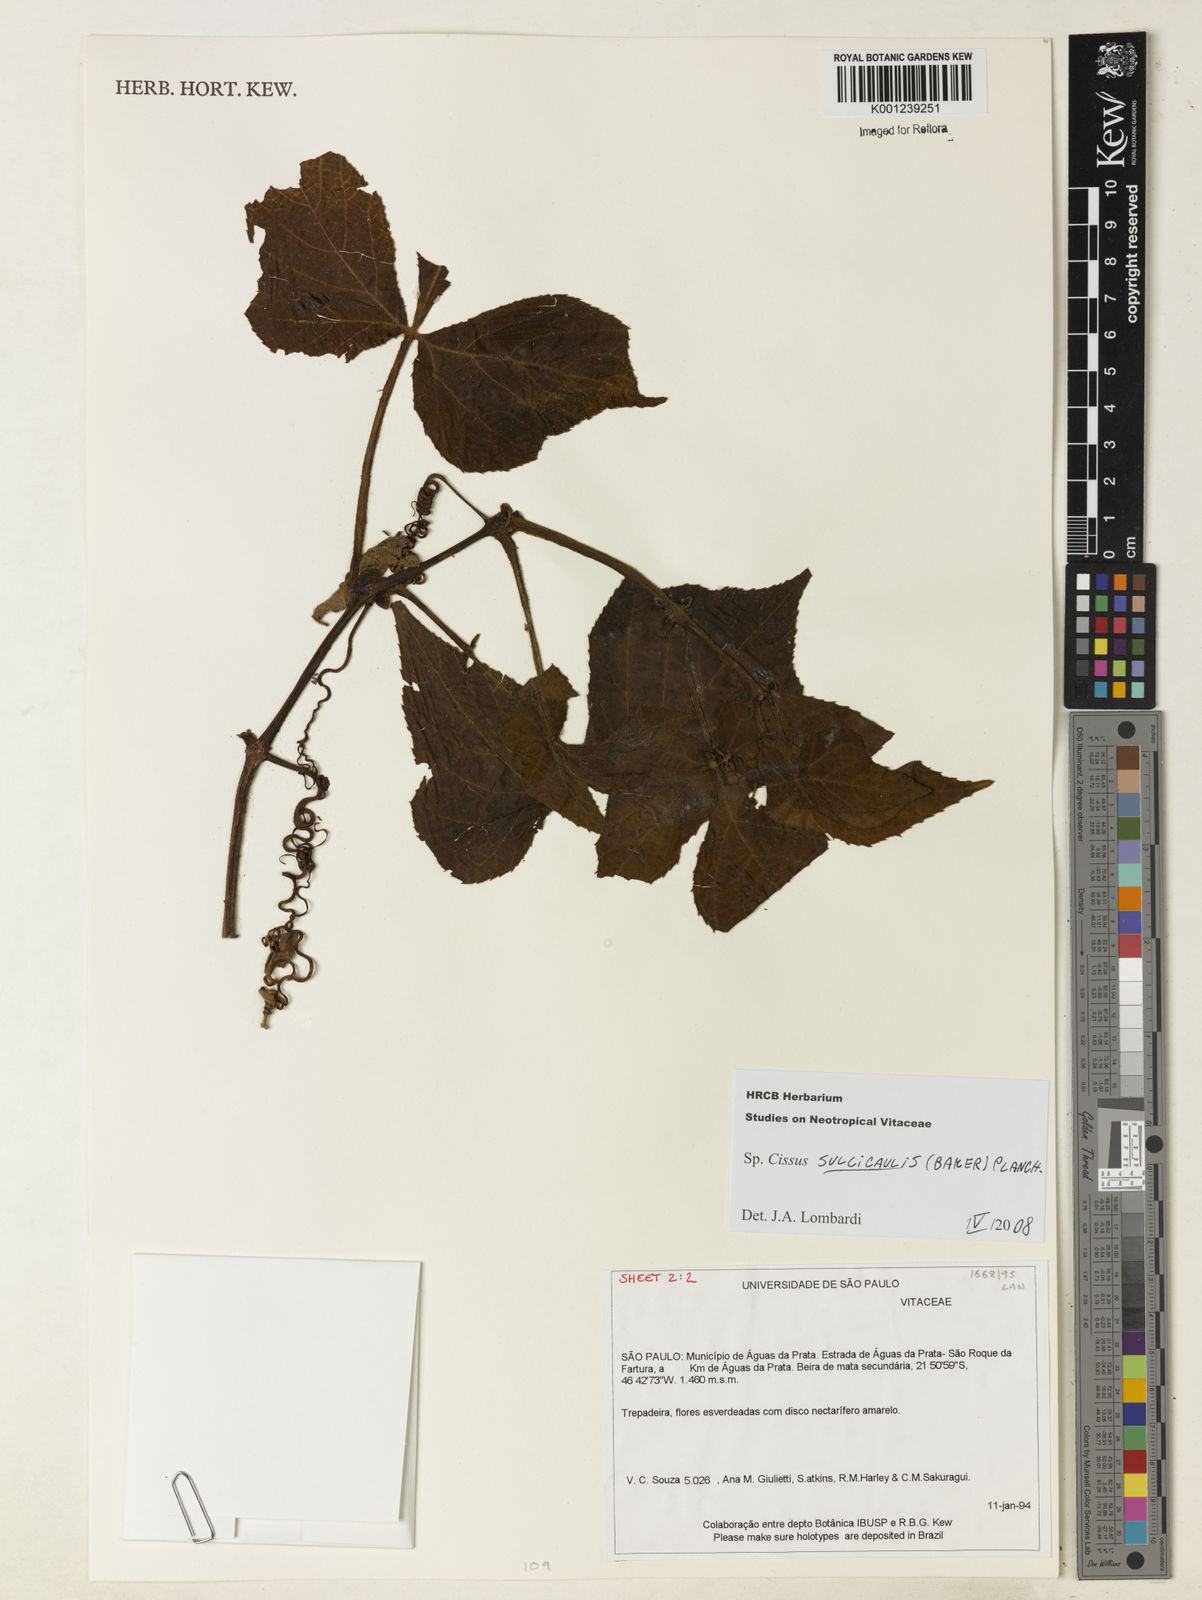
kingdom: Plantae
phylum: Tracheophyta
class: Magnoliopsida
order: Vitales
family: Vitaceae
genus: Cissus
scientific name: Cissus sulcicaulis
